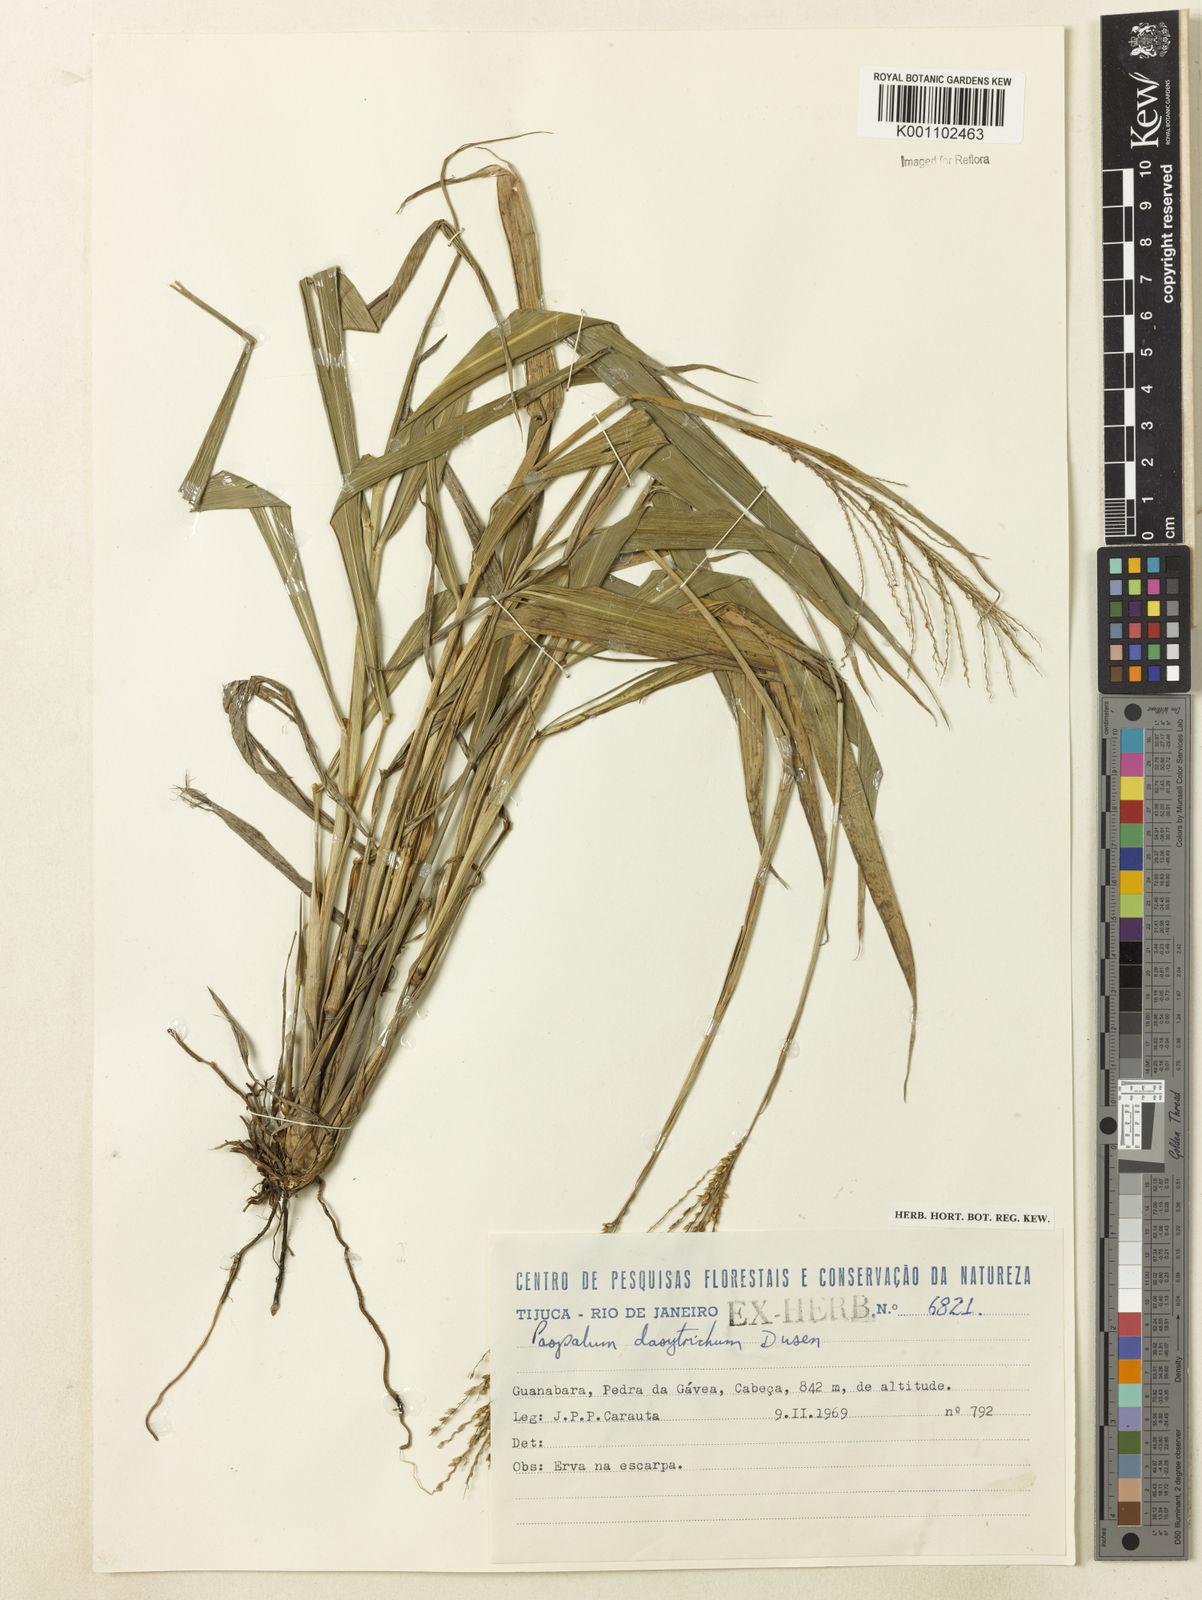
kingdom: Plantae
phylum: Tracheophyta
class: Liliopsida
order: Poales
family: Poaceae
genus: Paspalum
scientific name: Paspalum
